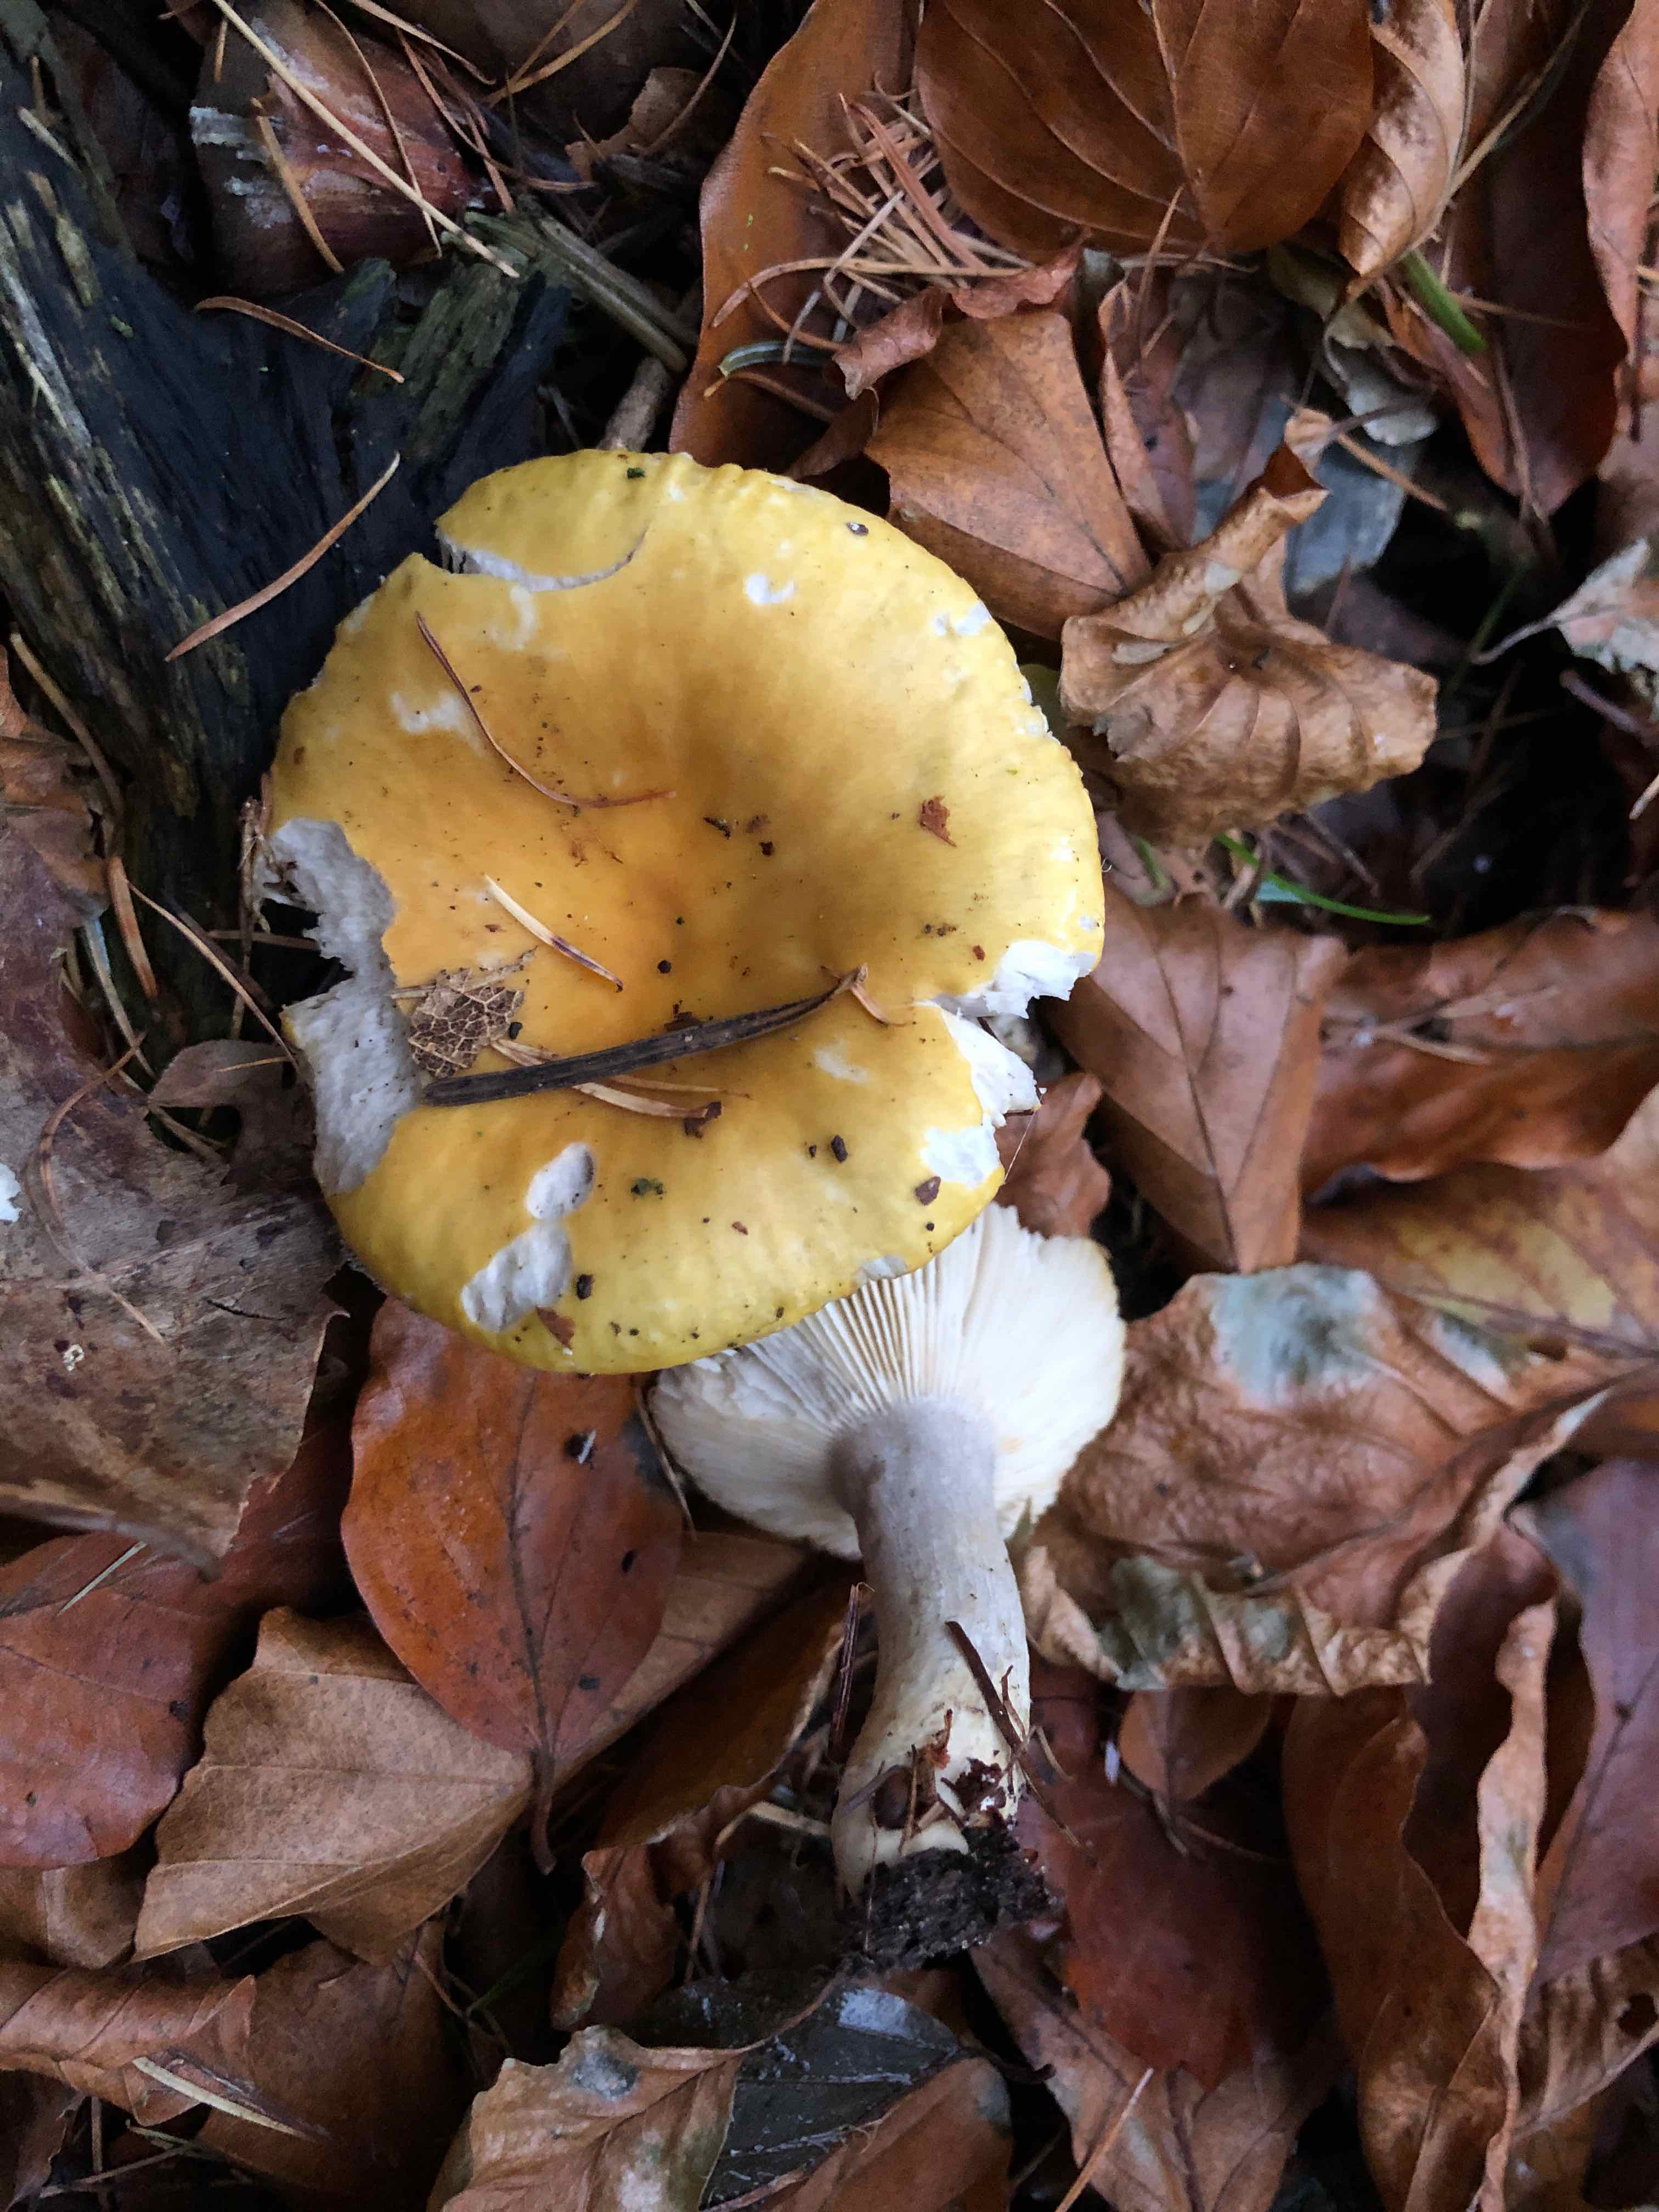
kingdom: Fungi
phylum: Basidiomycota
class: Agaricomycetes
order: Russulales
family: Russulaceae
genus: Russula
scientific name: Russula ochroleuca
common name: okkergul skørhat
